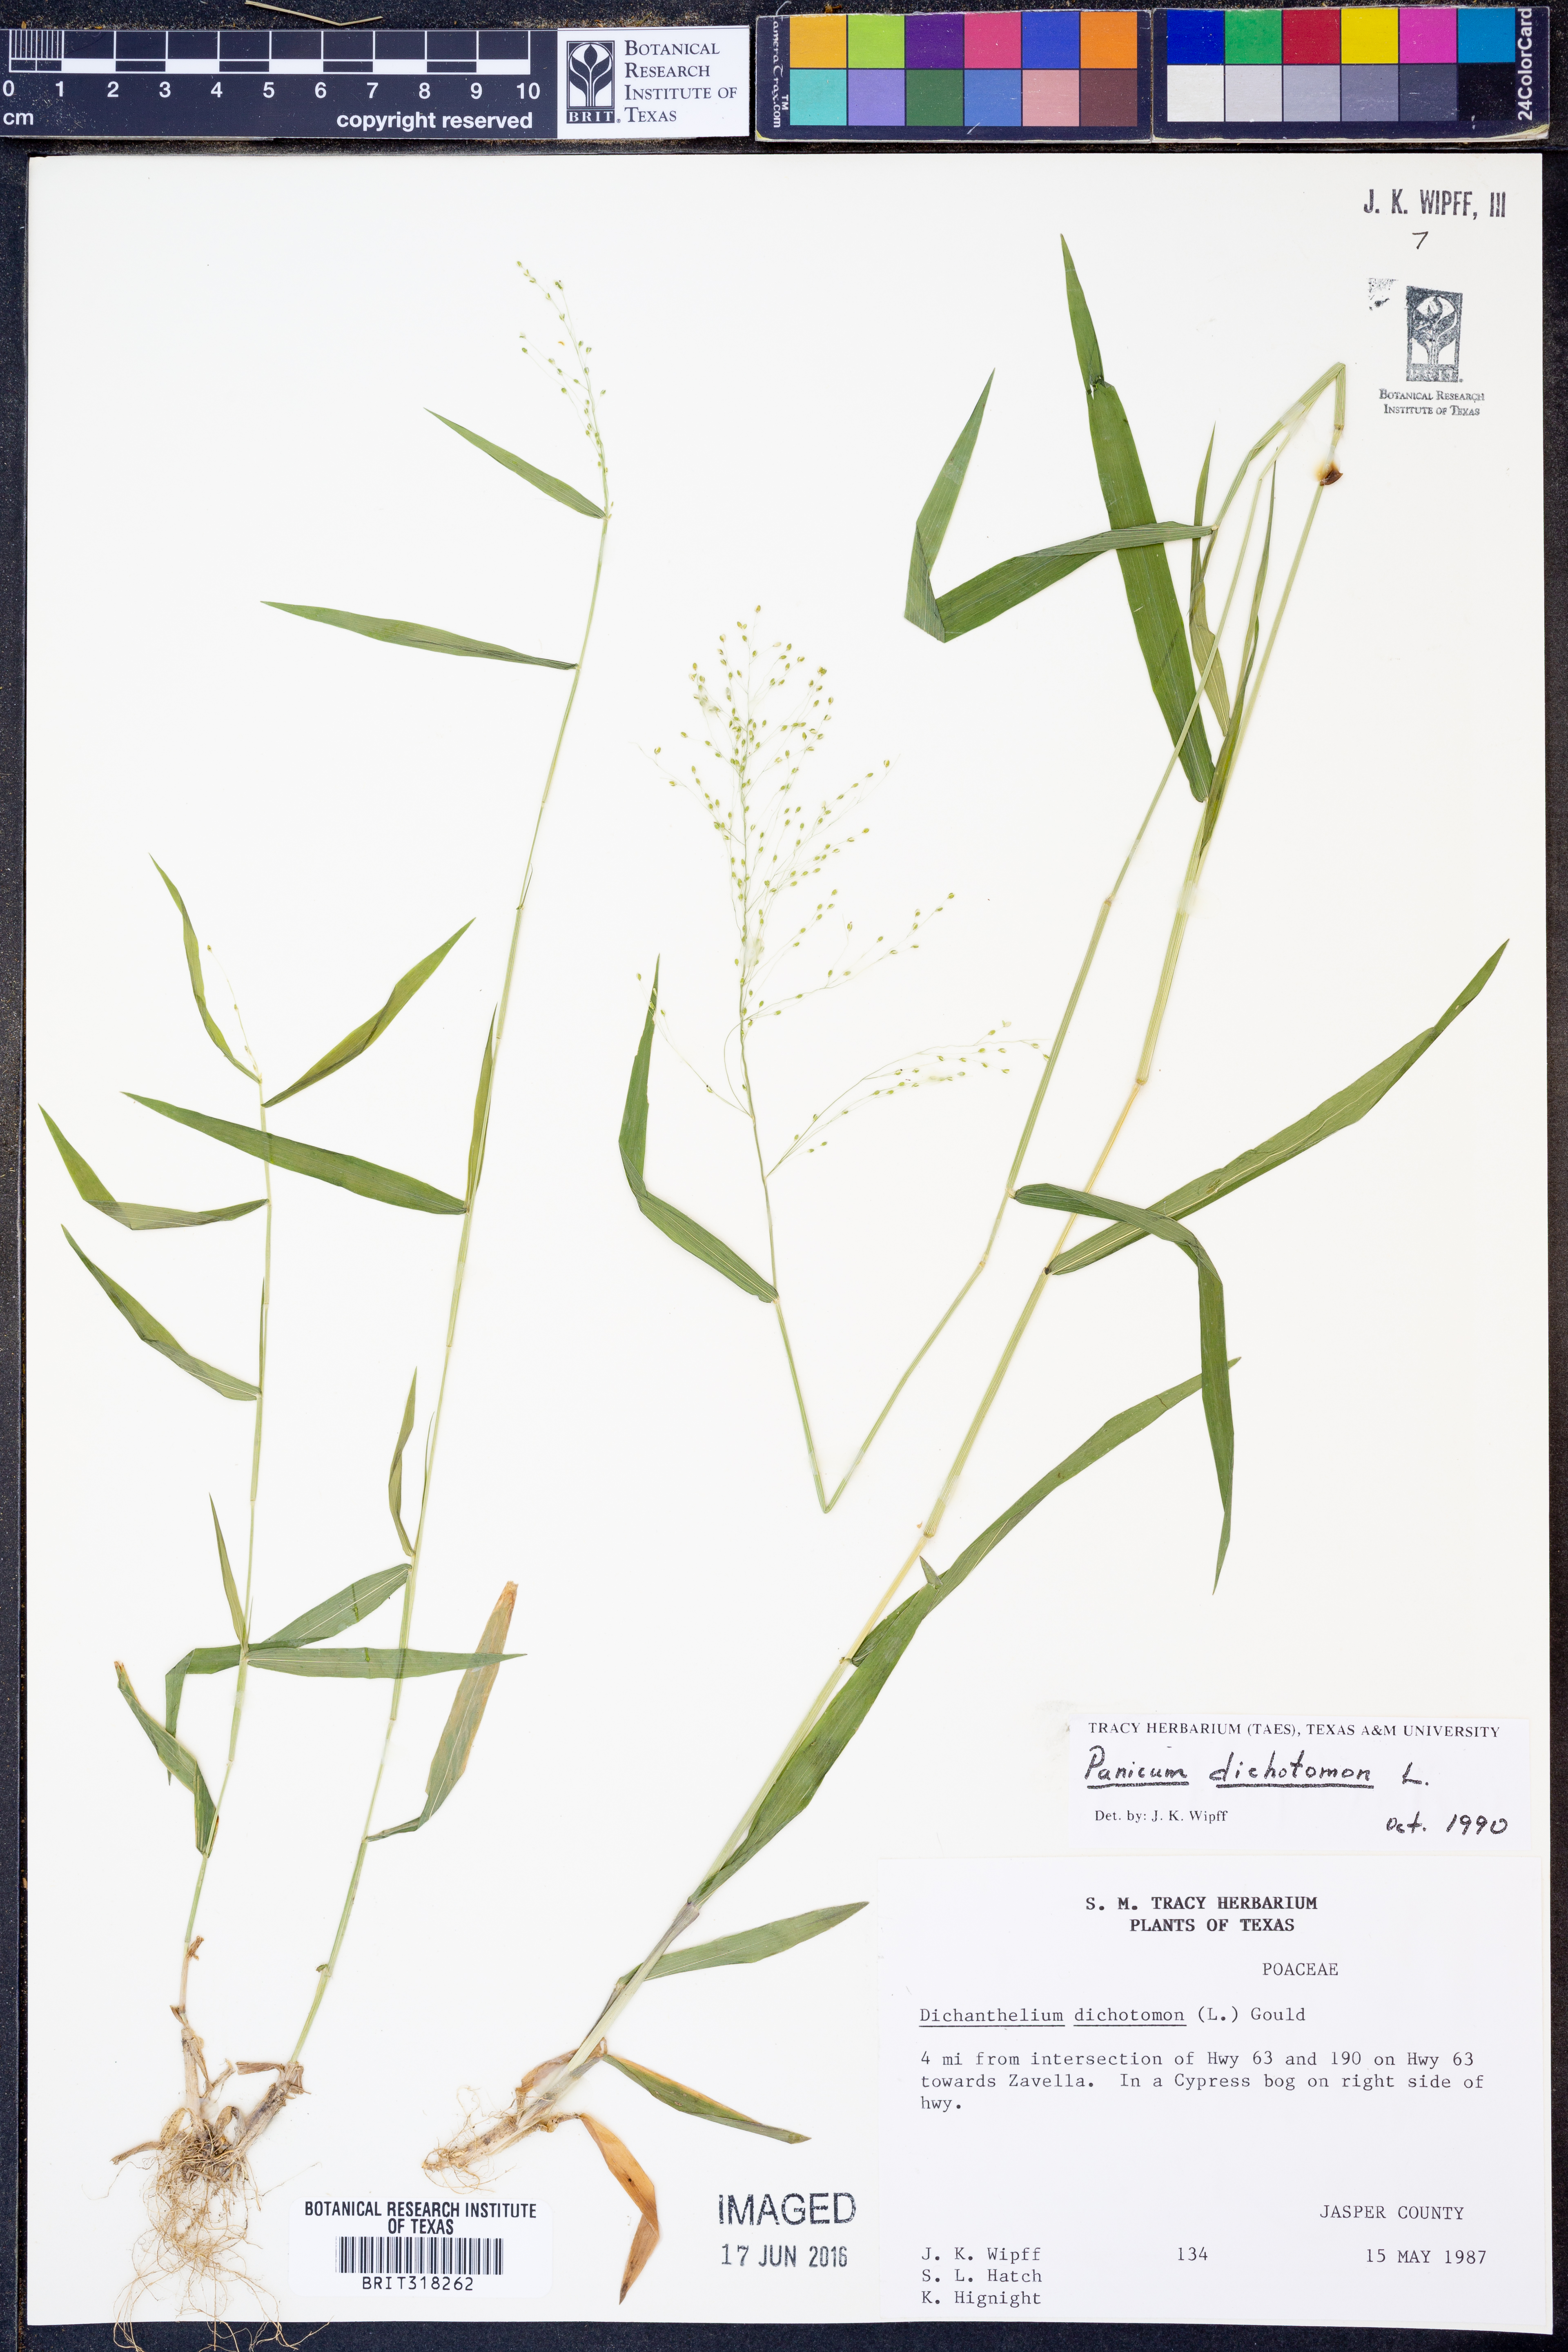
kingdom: Plantae
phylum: Tracheophyta
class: Liliopsida
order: Poales
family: Poaceae
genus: Dichanthelium
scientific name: Dichanthelium dichotomum
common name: Cypress panicgrass
